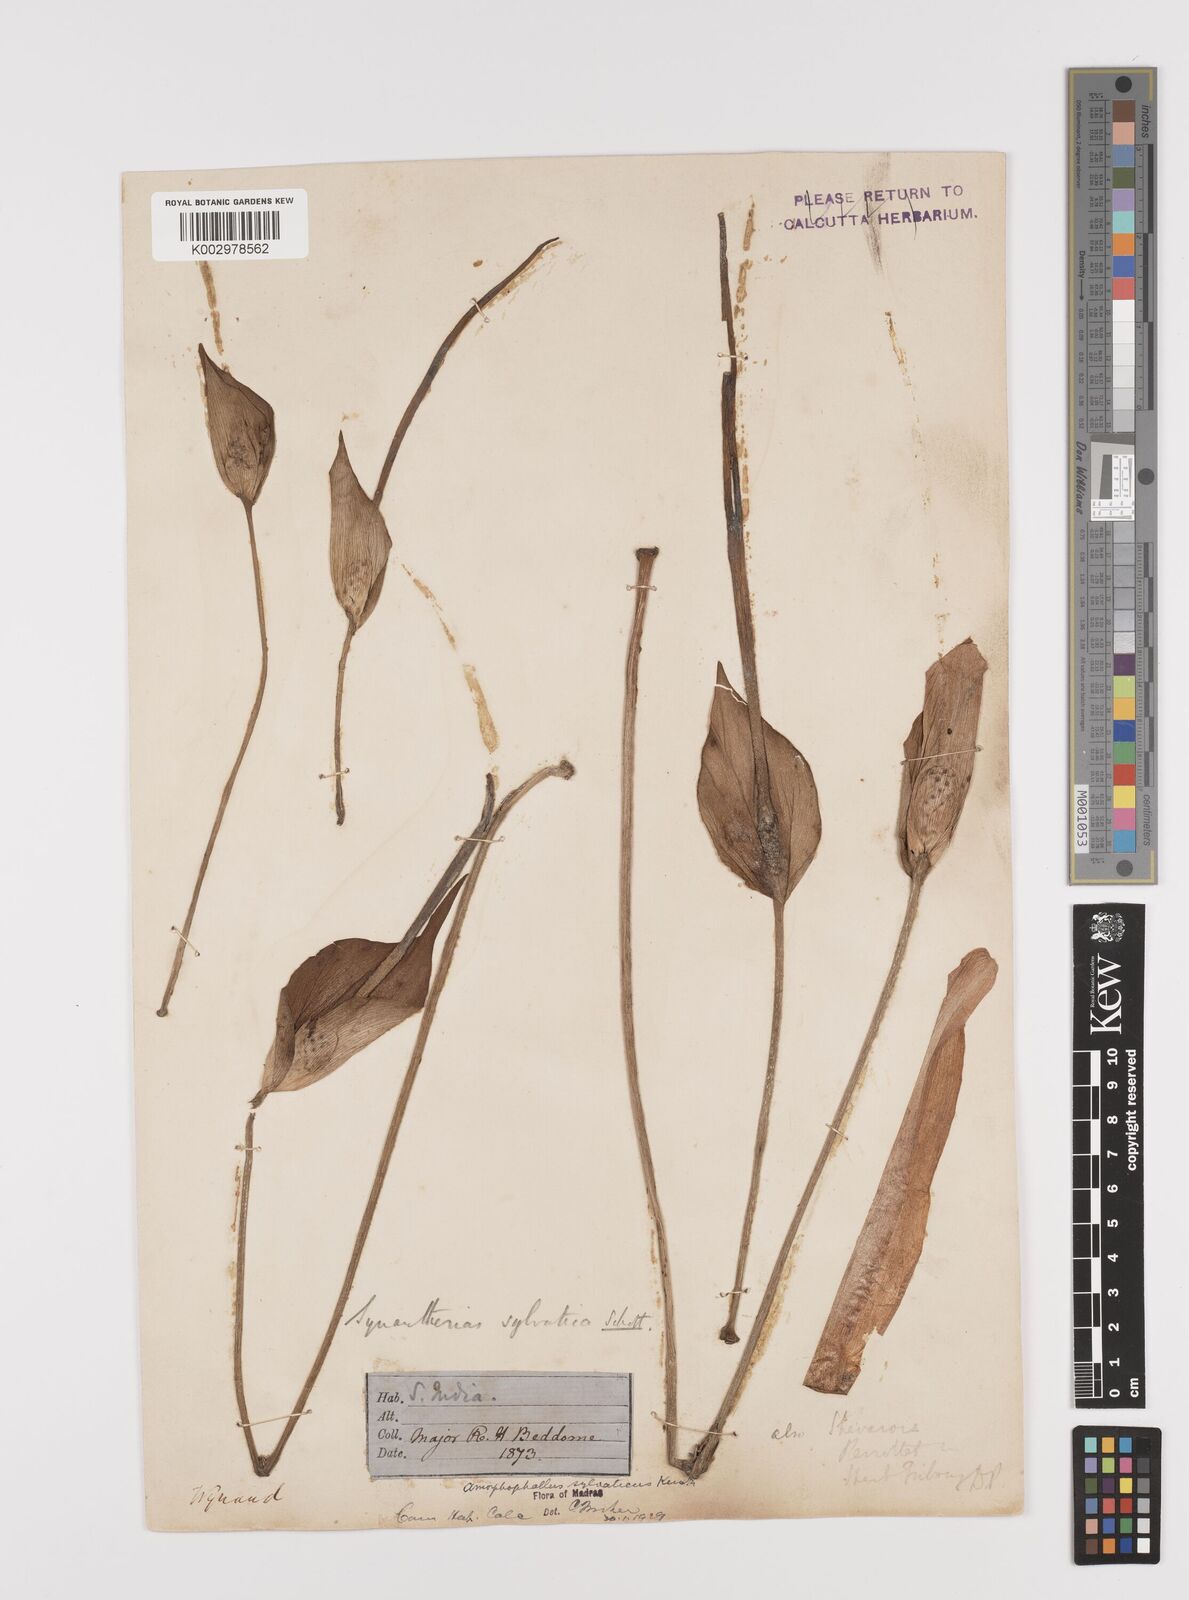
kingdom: Plantae
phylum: Tracheophyta
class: Liliopsida
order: Alismatales
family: Araceae
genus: Amorphophallus
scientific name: Amorphophallus sylvaticus
